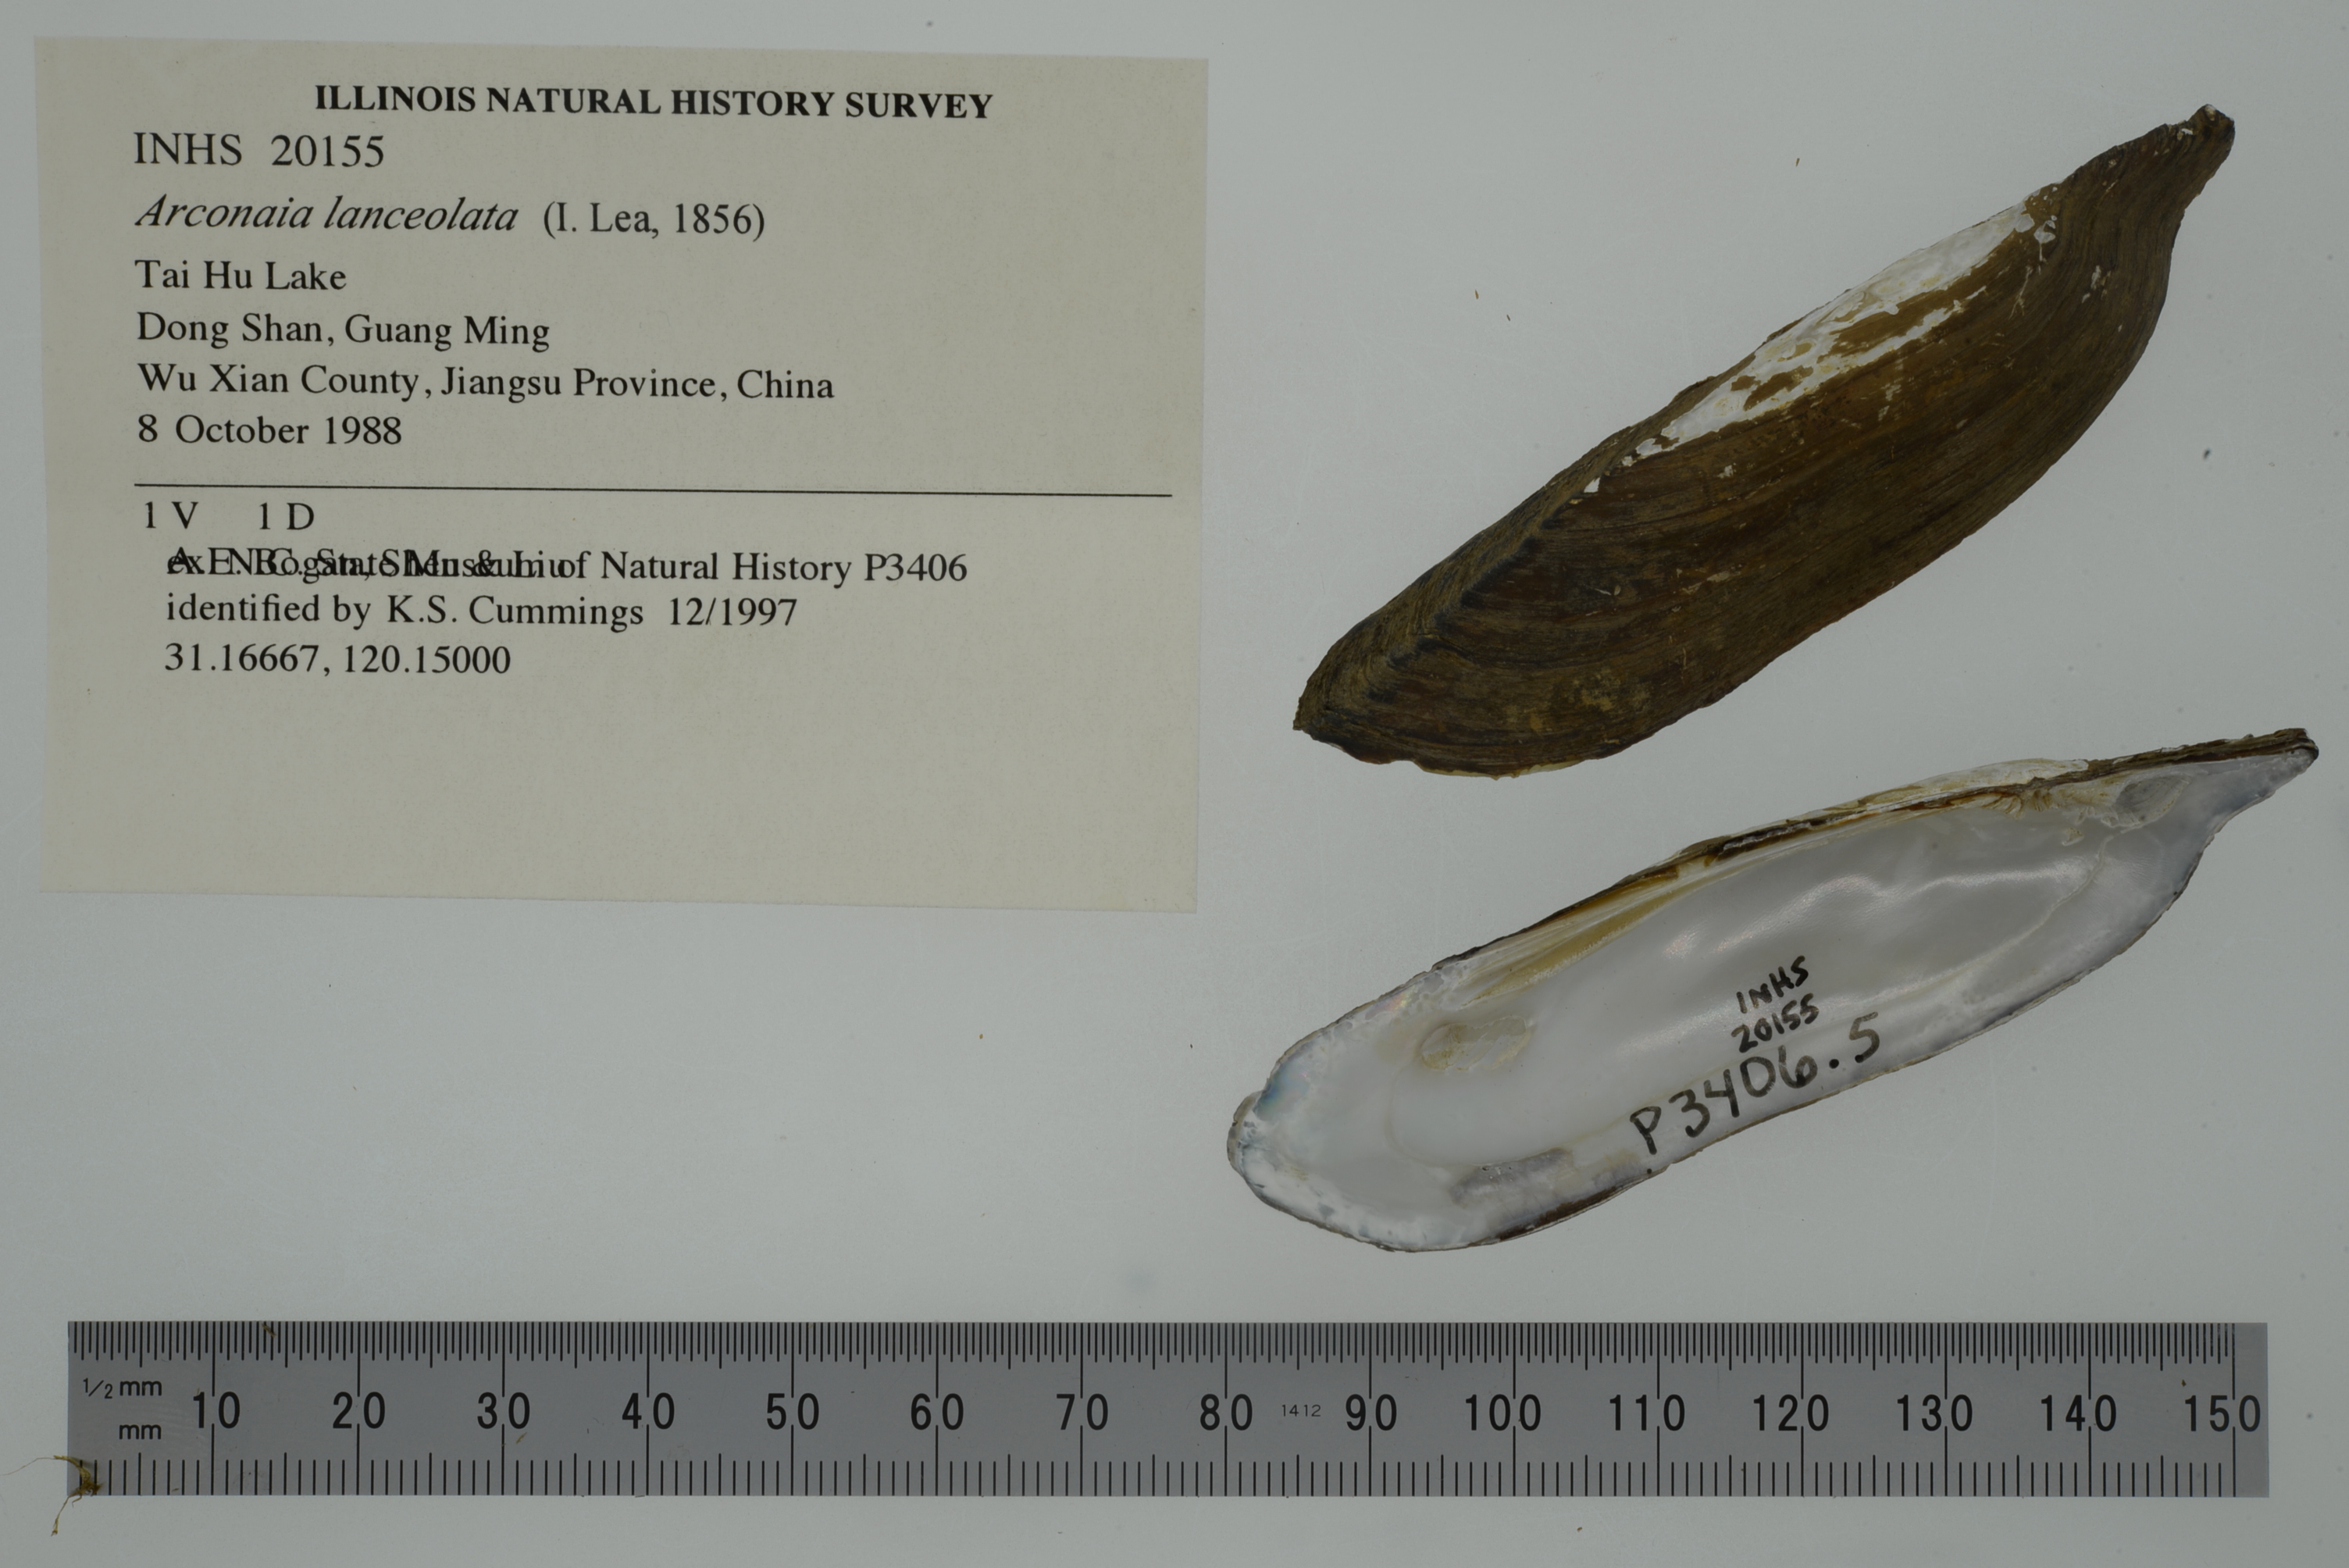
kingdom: Animalia
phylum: Mollusca
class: Bivalvia
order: Unionida
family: Unionidae
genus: Lanceolaria
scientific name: Lanceolaria lanceolata
